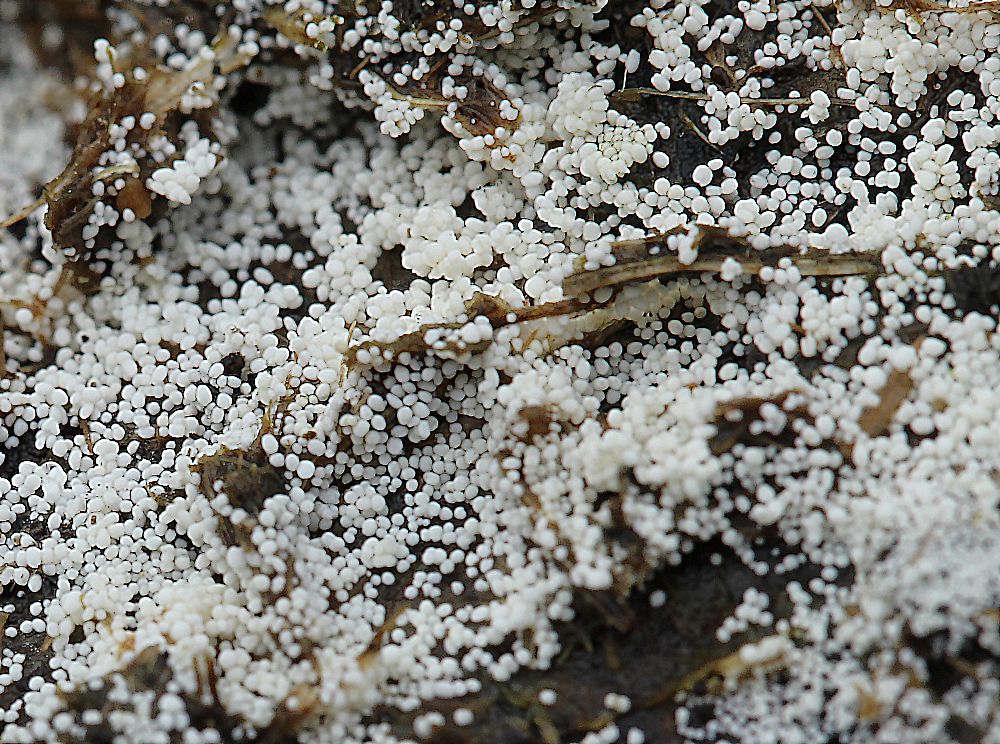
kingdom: Fungi
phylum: Basidiomycota
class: Agaricomycetes
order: Polyporales
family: Meruliaceae
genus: Bulbillomyces
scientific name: Bulbillomyces farinosus
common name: æg-kalkskind
